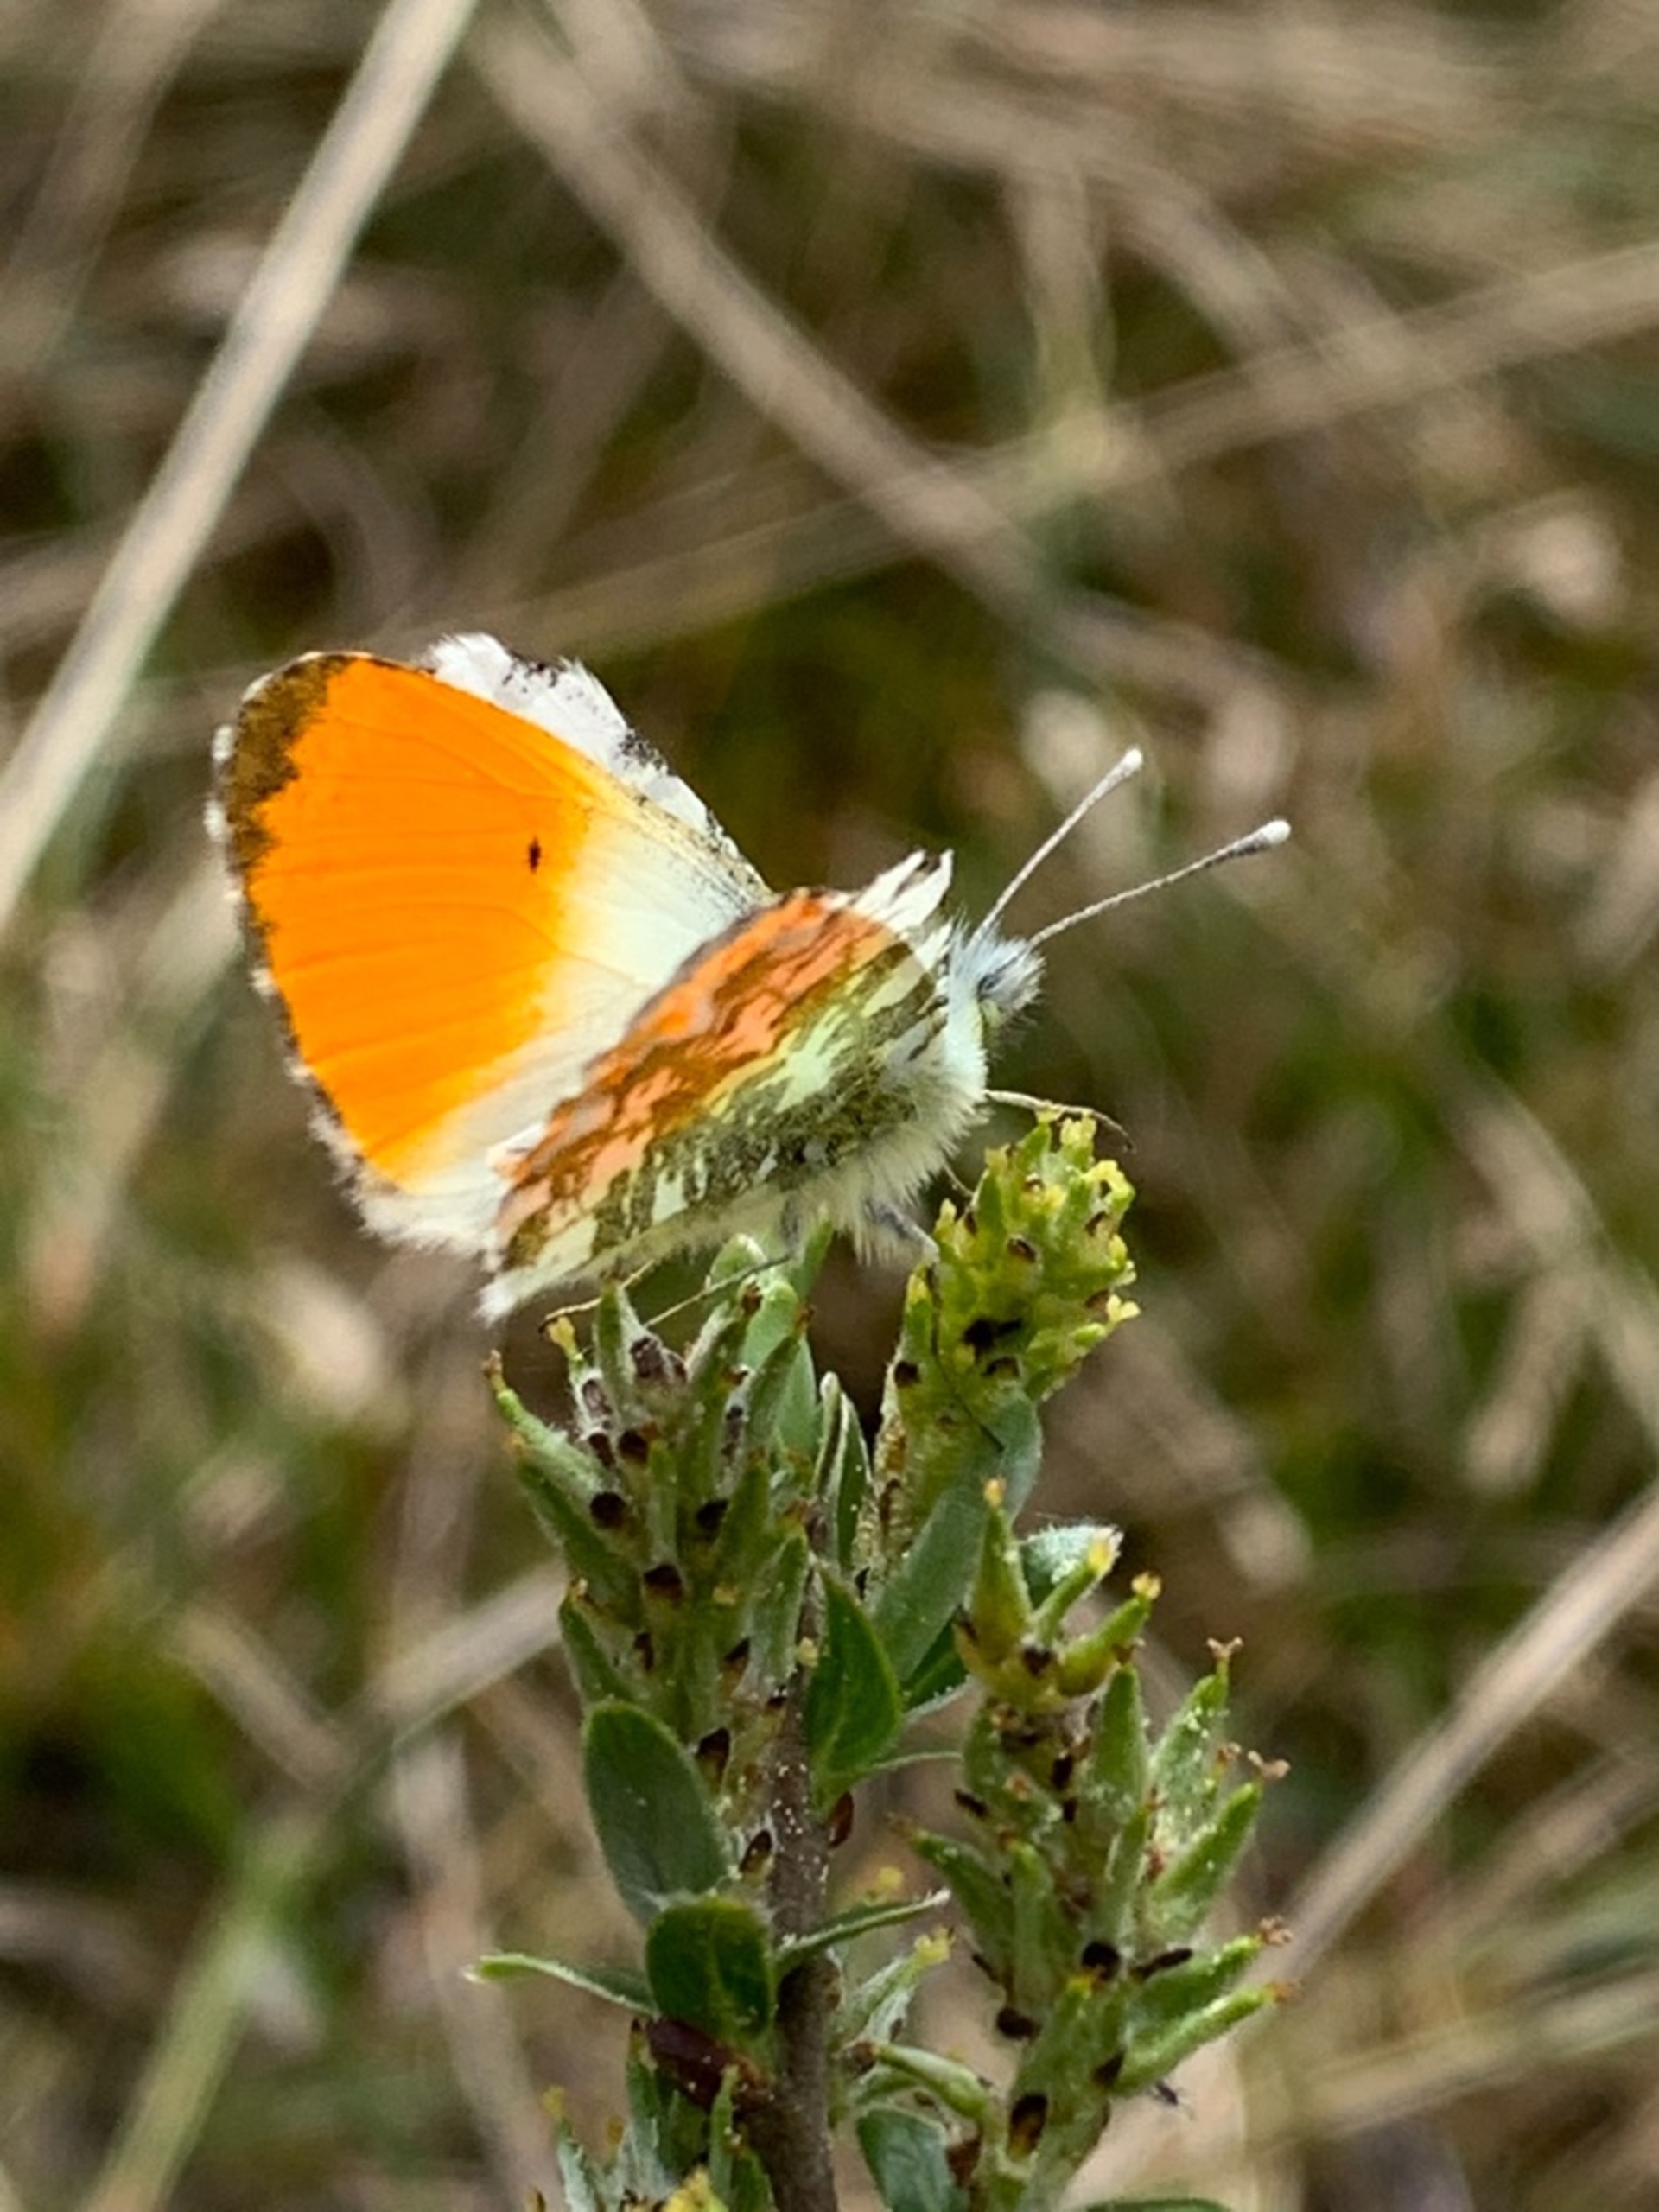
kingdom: Animalia
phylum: Arthropoda
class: Insecta
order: Lepidoptera
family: Pieridae
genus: Anthocharis
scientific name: Anthocharis cardamines
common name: Aurora
